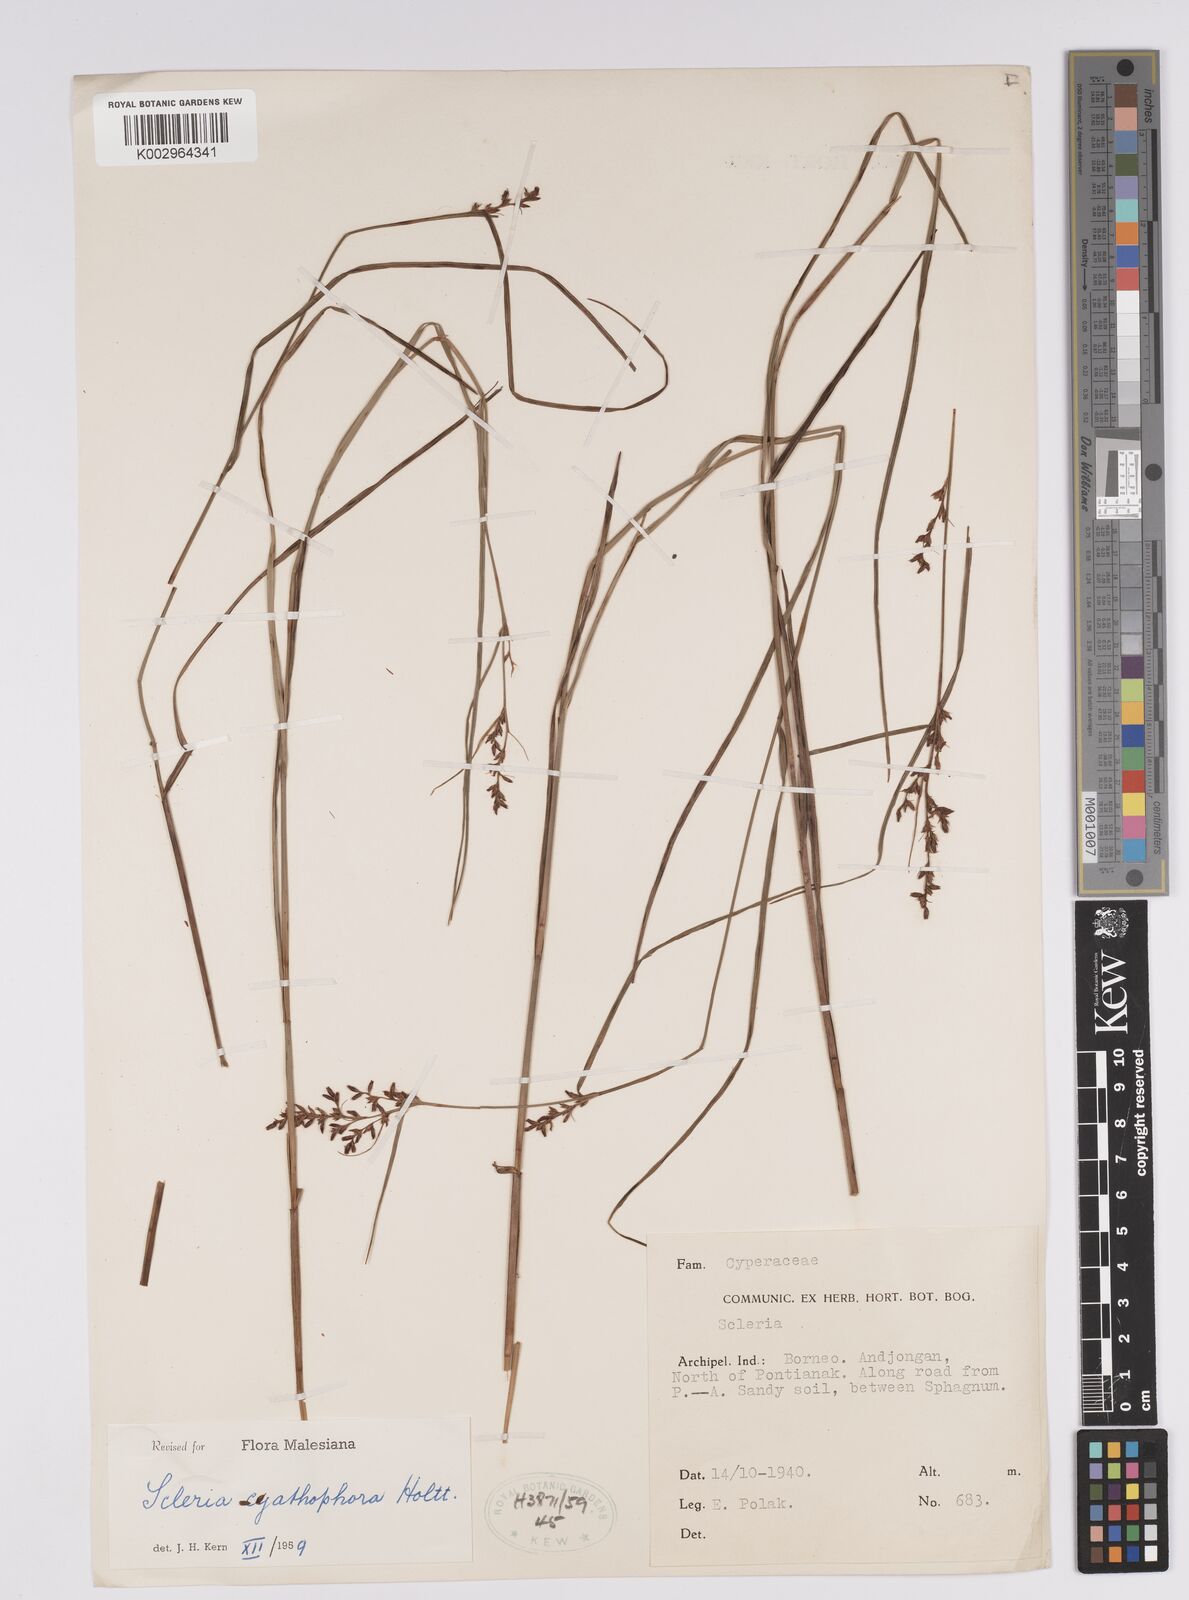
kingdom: Plantae
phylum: Tracheophyta
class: Liliopsida
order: Poales
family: Cyperaceae
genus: Scleria
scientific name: Scleria cyathophora
